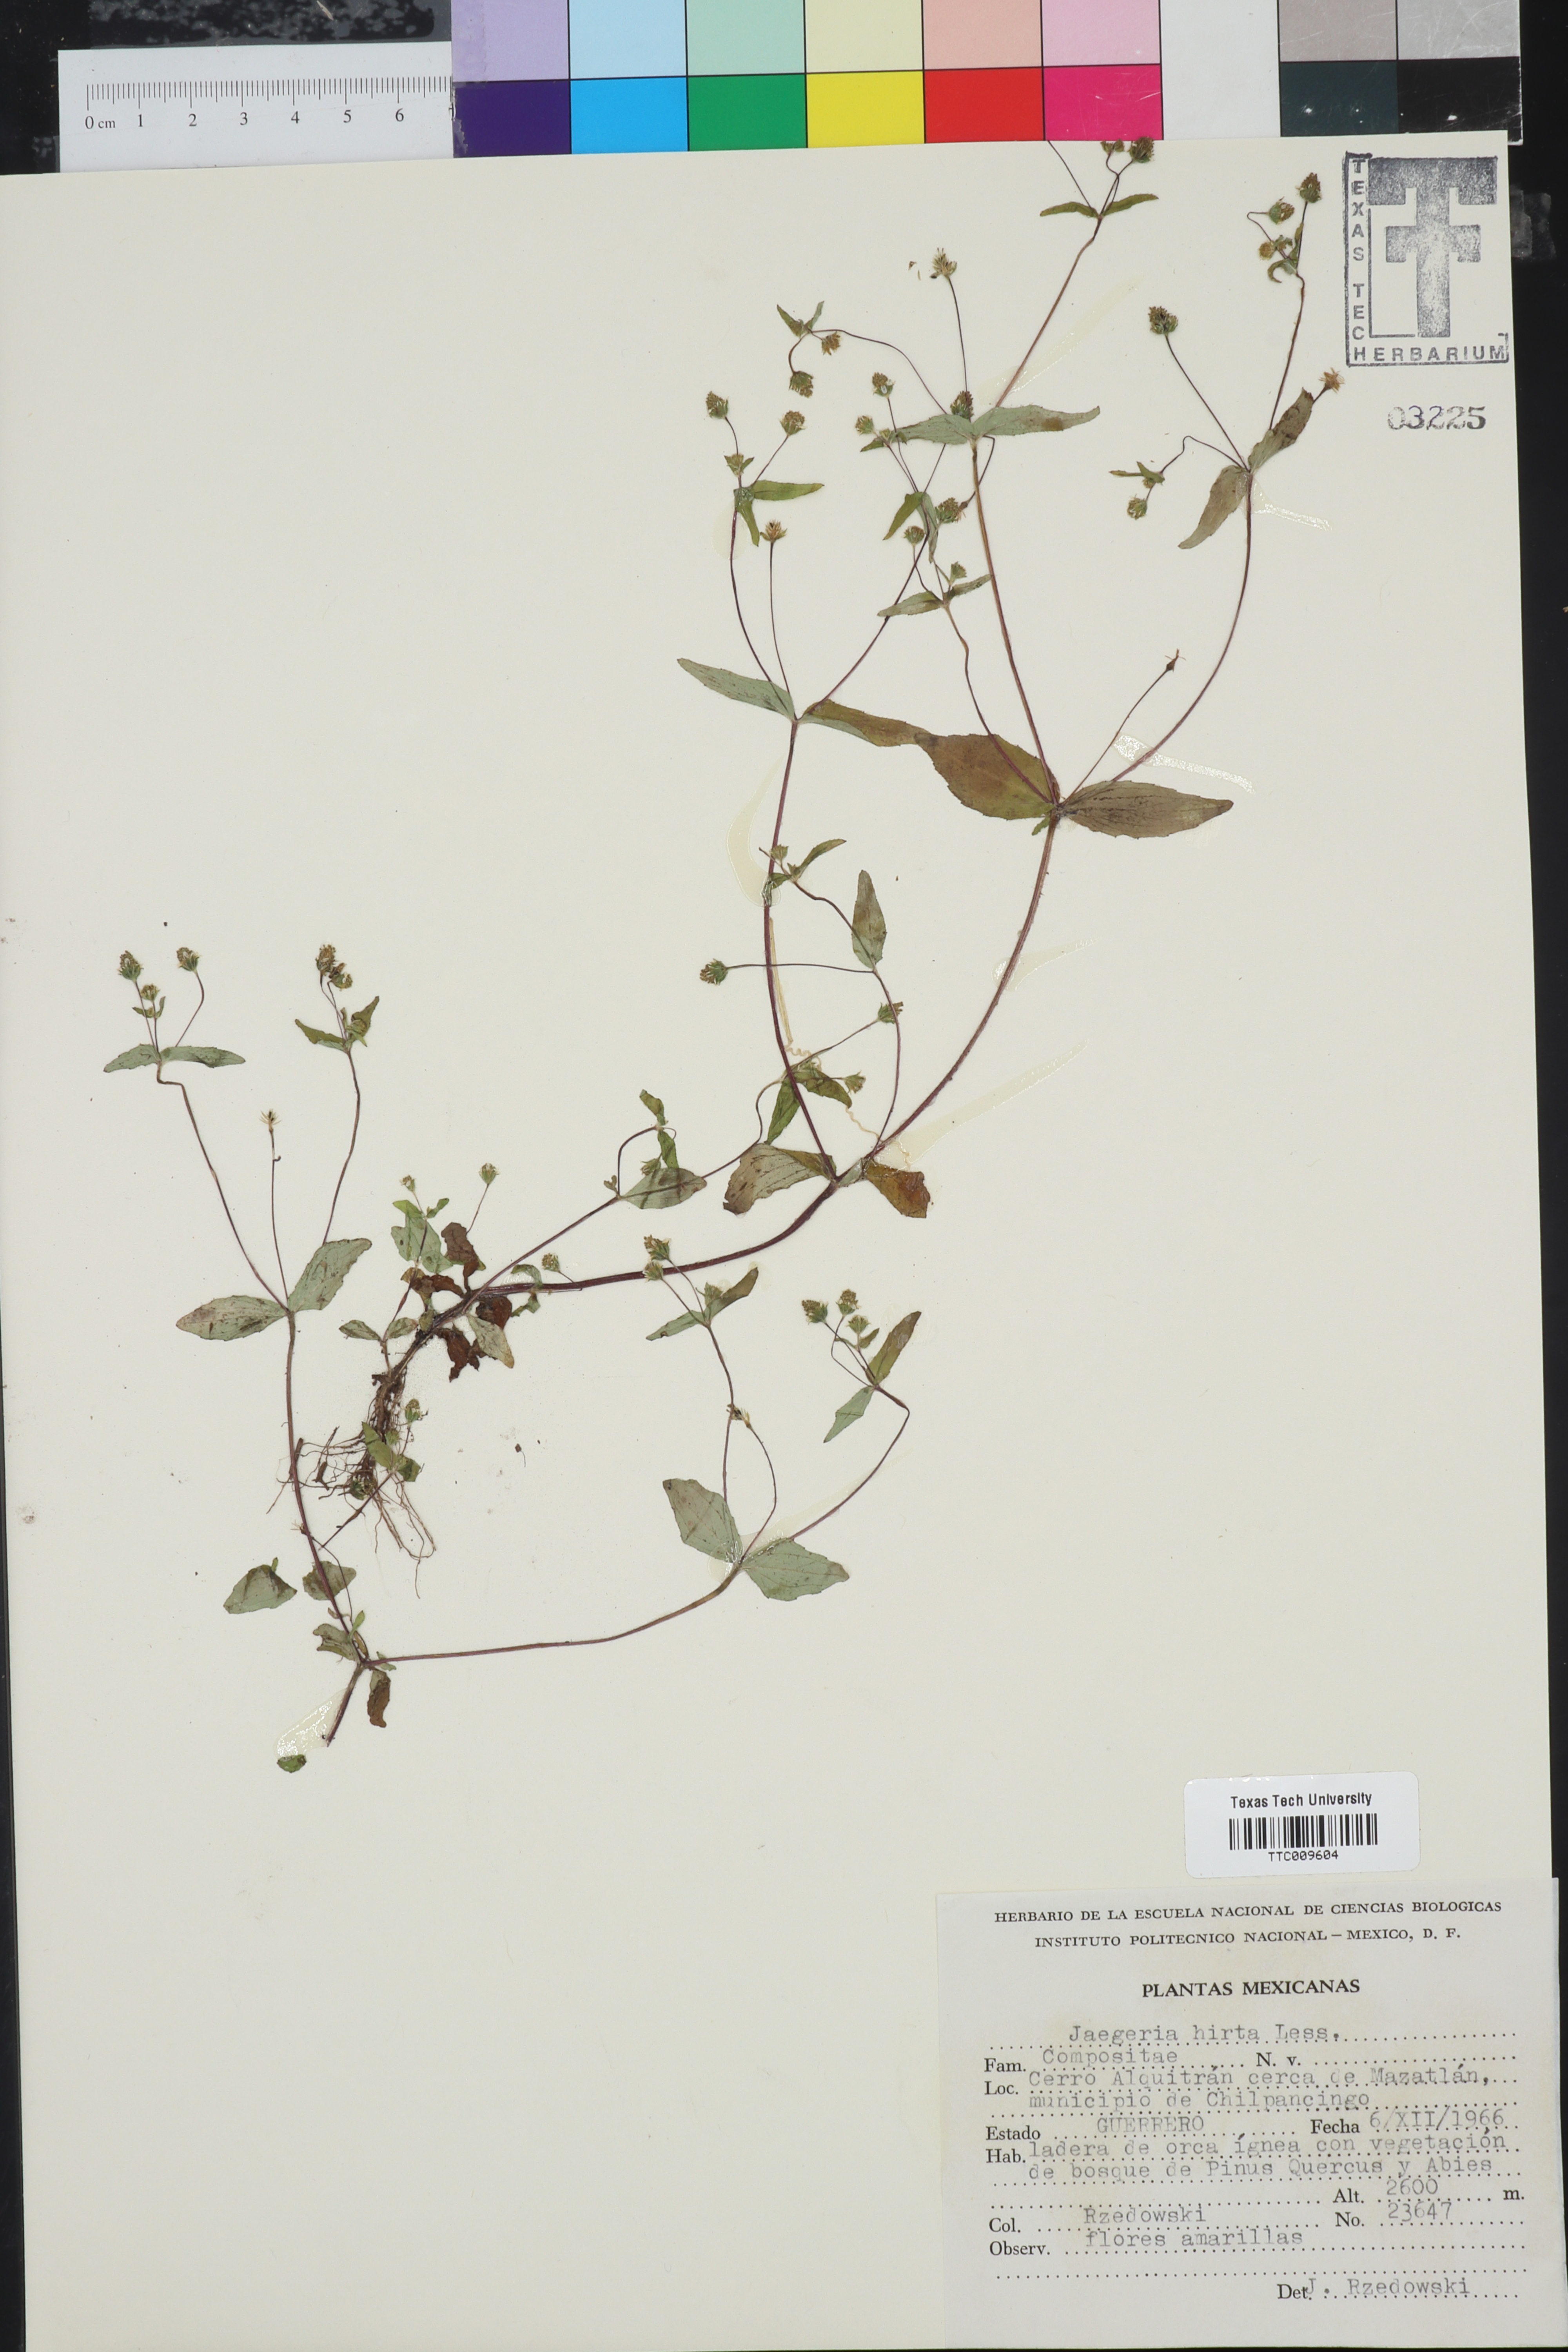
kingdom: Plantae
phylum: Tracheophyta
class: Magnoliopsida
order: Asterales
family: Asteraceae
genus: Jaegeria
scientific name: Jaegeria hirta
